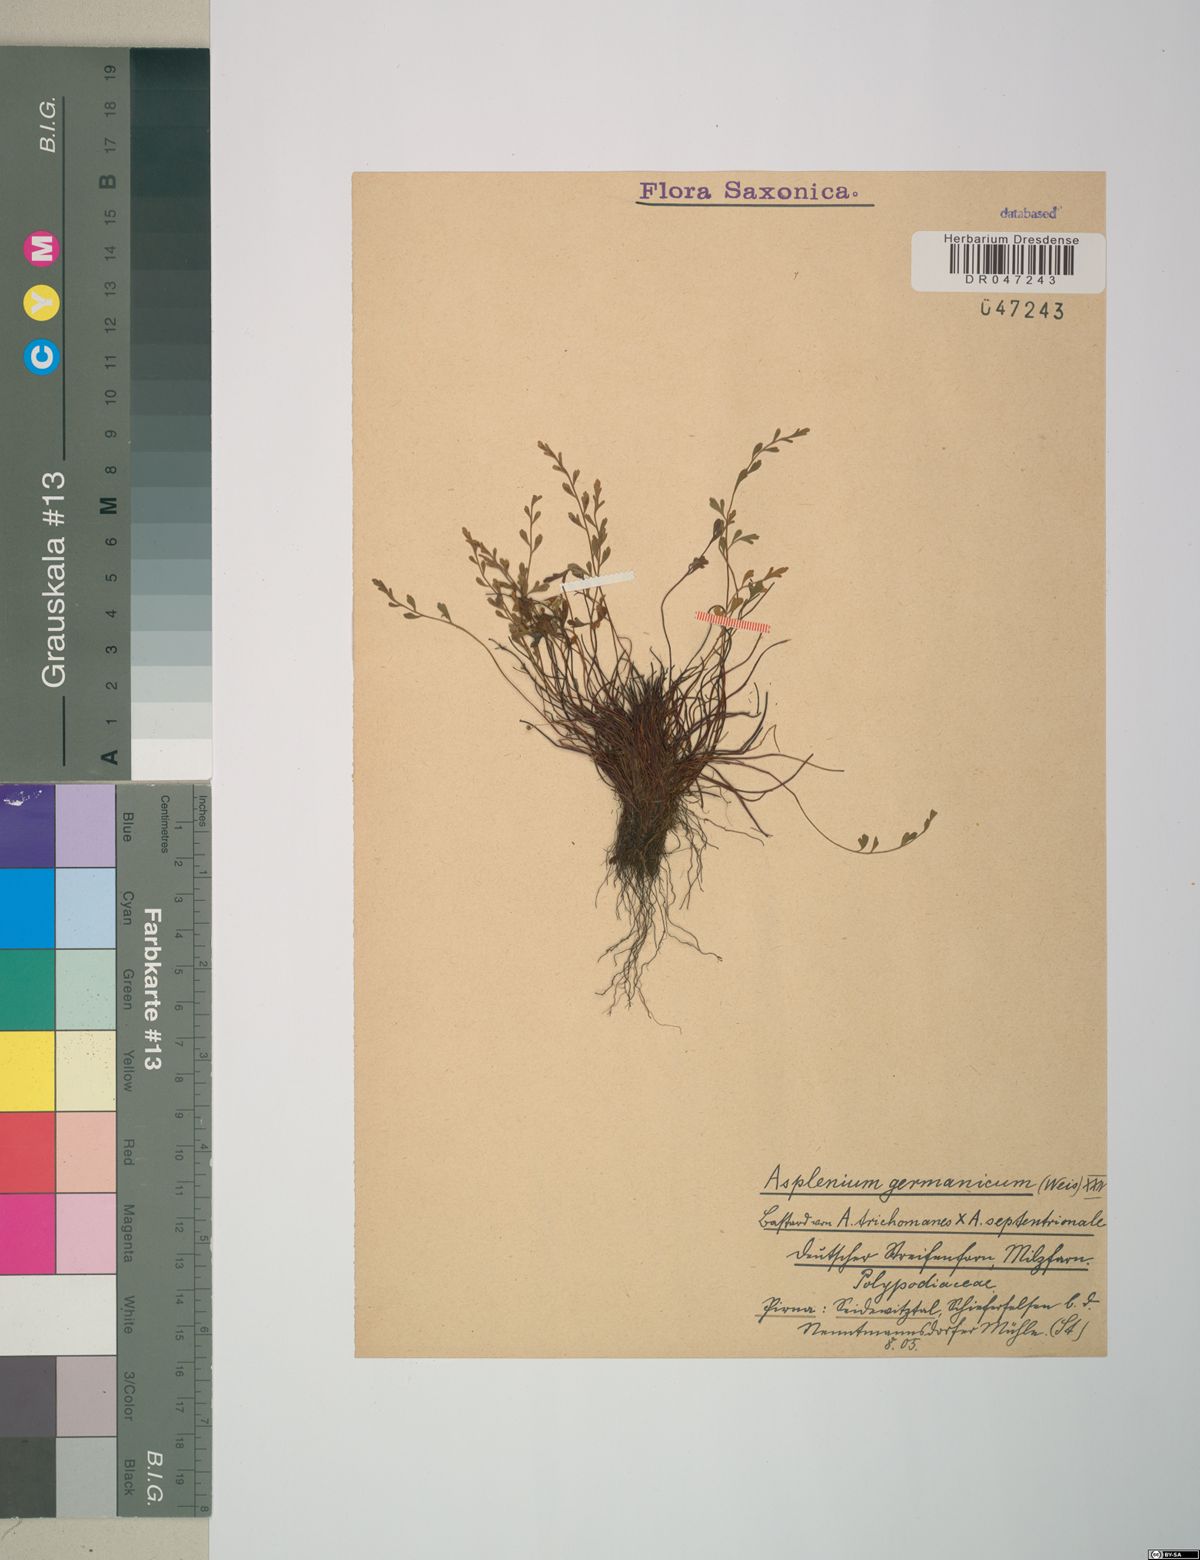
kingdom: Plantae
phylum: Tracheophyta
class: Polypodiopsida
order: Polypodiales
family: Aspleniaceae
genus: Asplenium
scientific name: Asplenium
